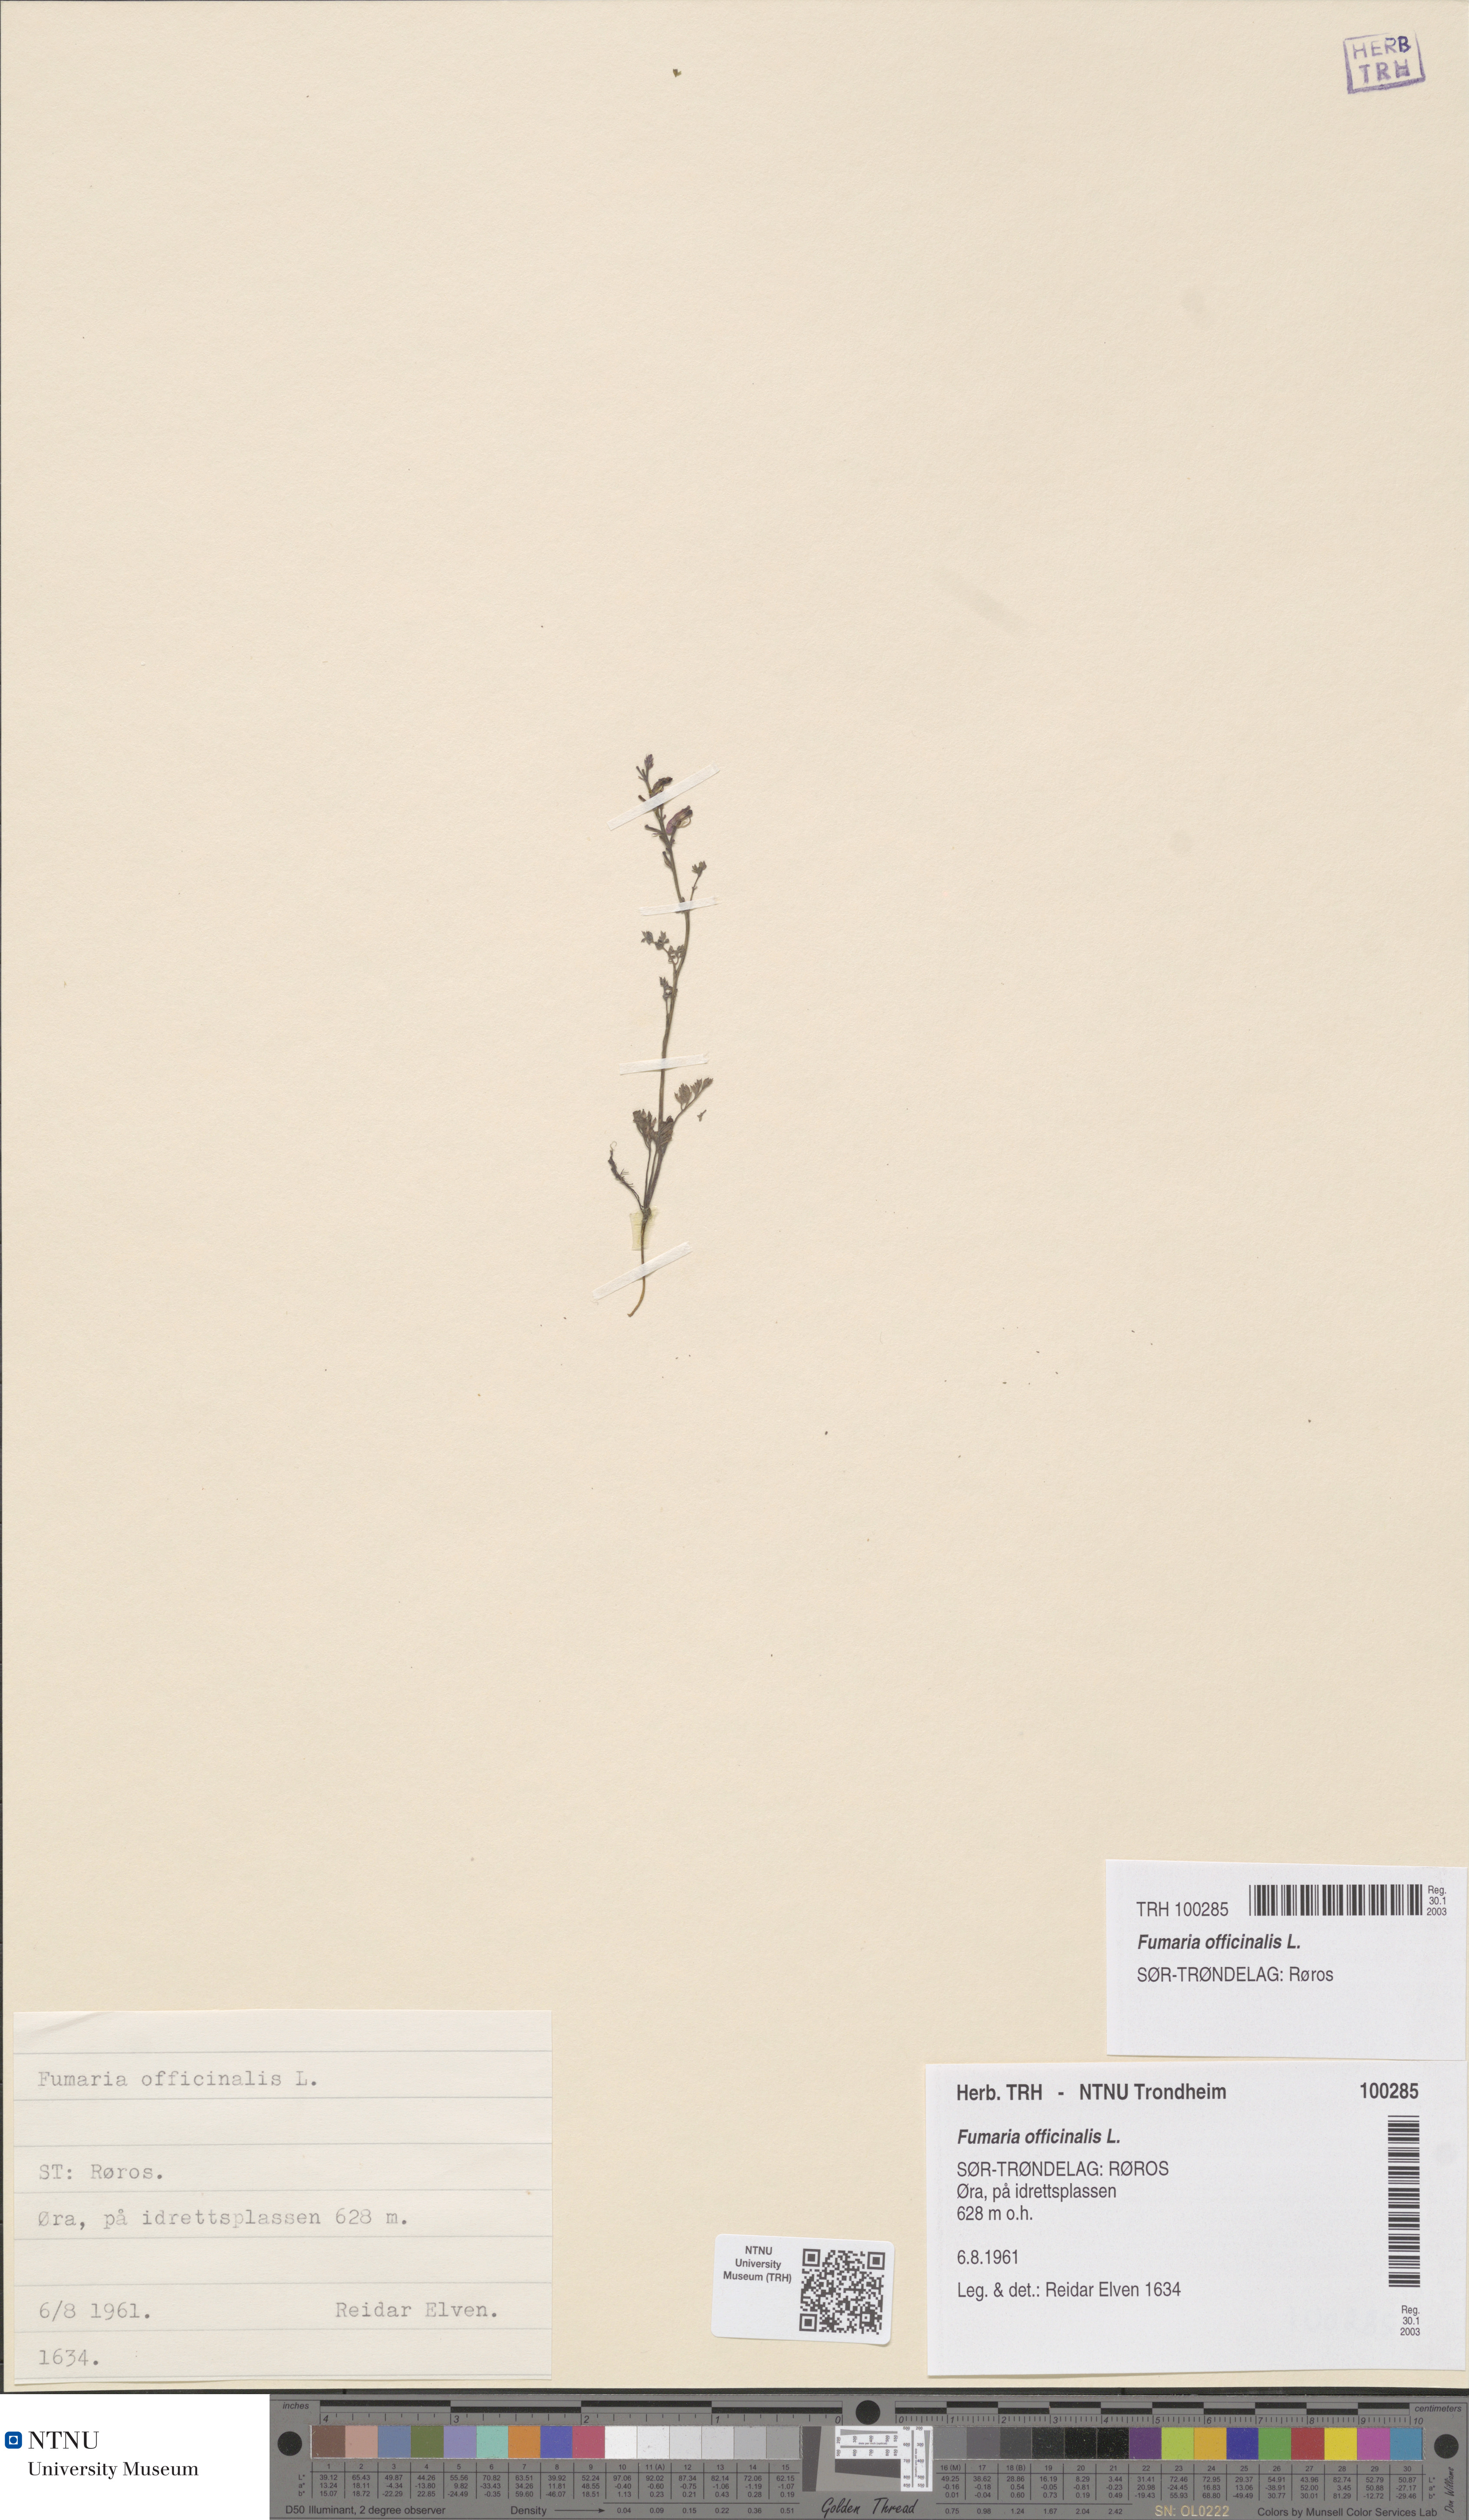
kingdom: Plantae
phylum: Tracheophyta
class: Magnoliopsida
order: Ranunculales
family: Papaveraceae
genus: Fumaria
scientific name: Fumaria officinalis
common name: Common fumitory
